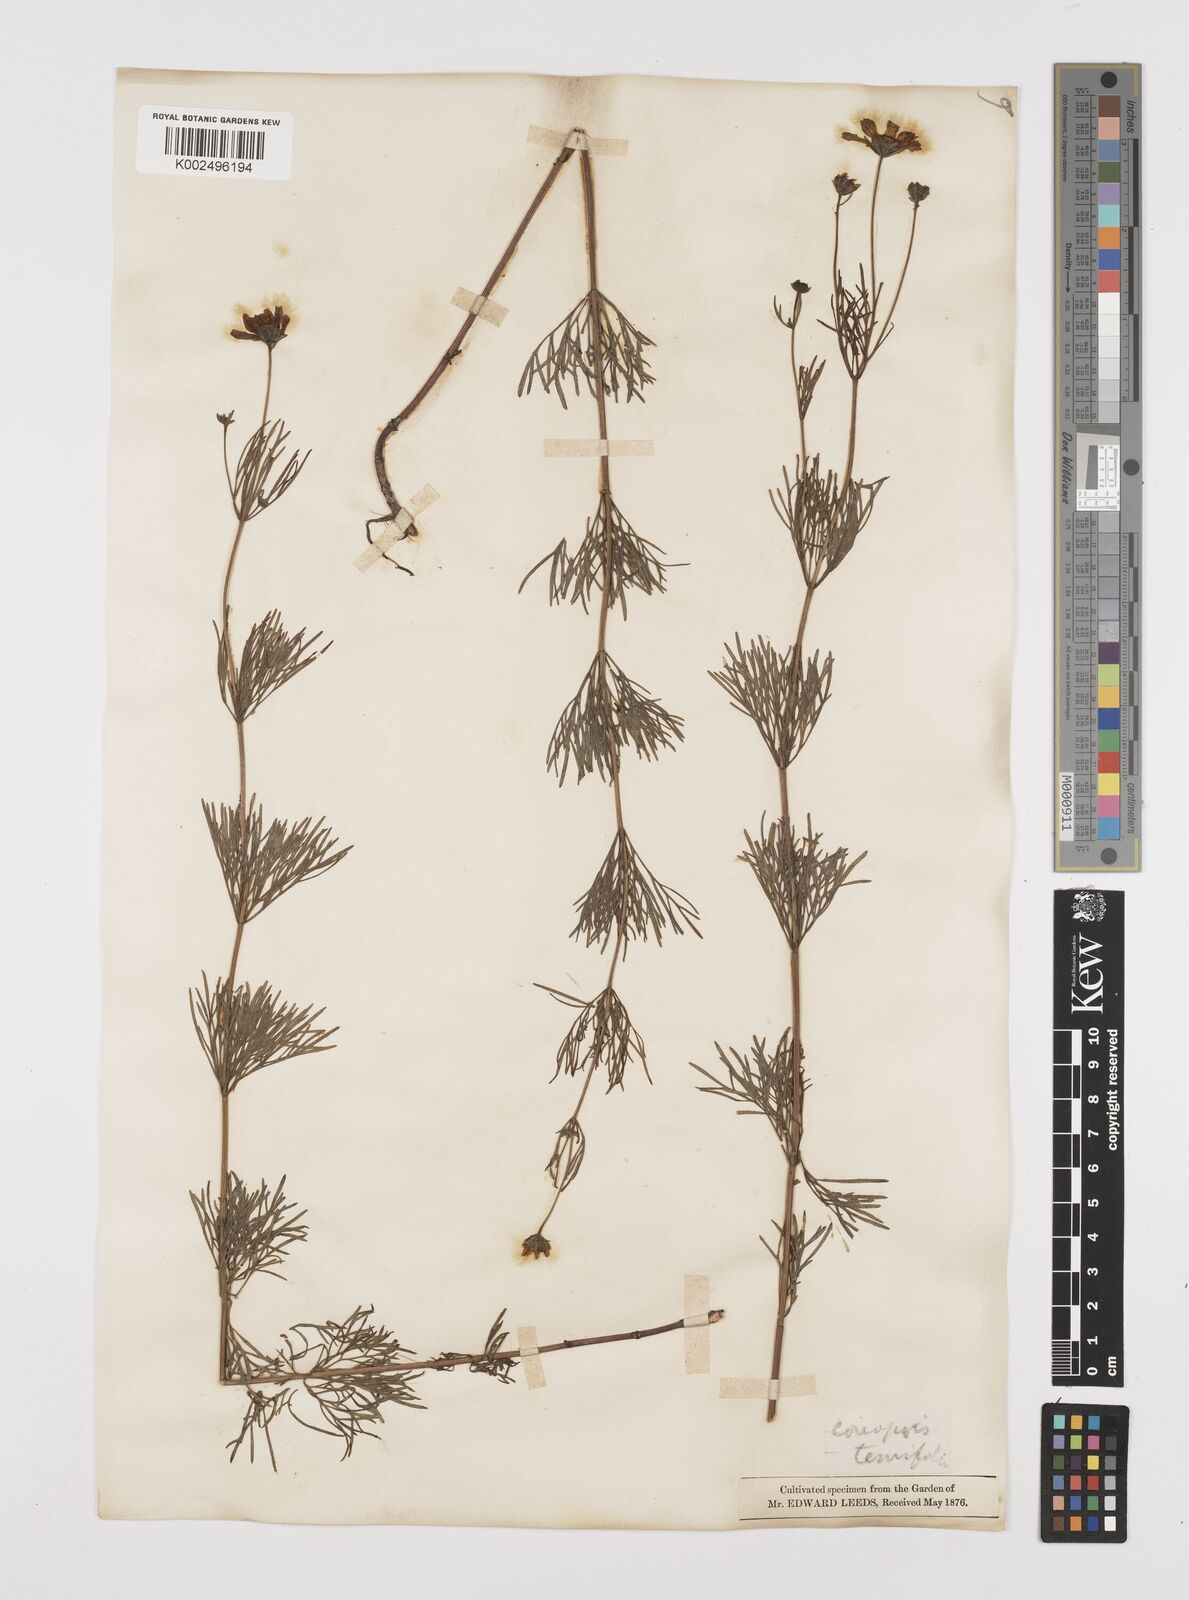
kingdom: Plantae
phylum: Tracheophyta
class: Magnoliopsida
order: Asterales
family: Asteraceae
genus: Coreopsis
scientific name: Coreopsis verticillata
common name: Whorled tickseed
